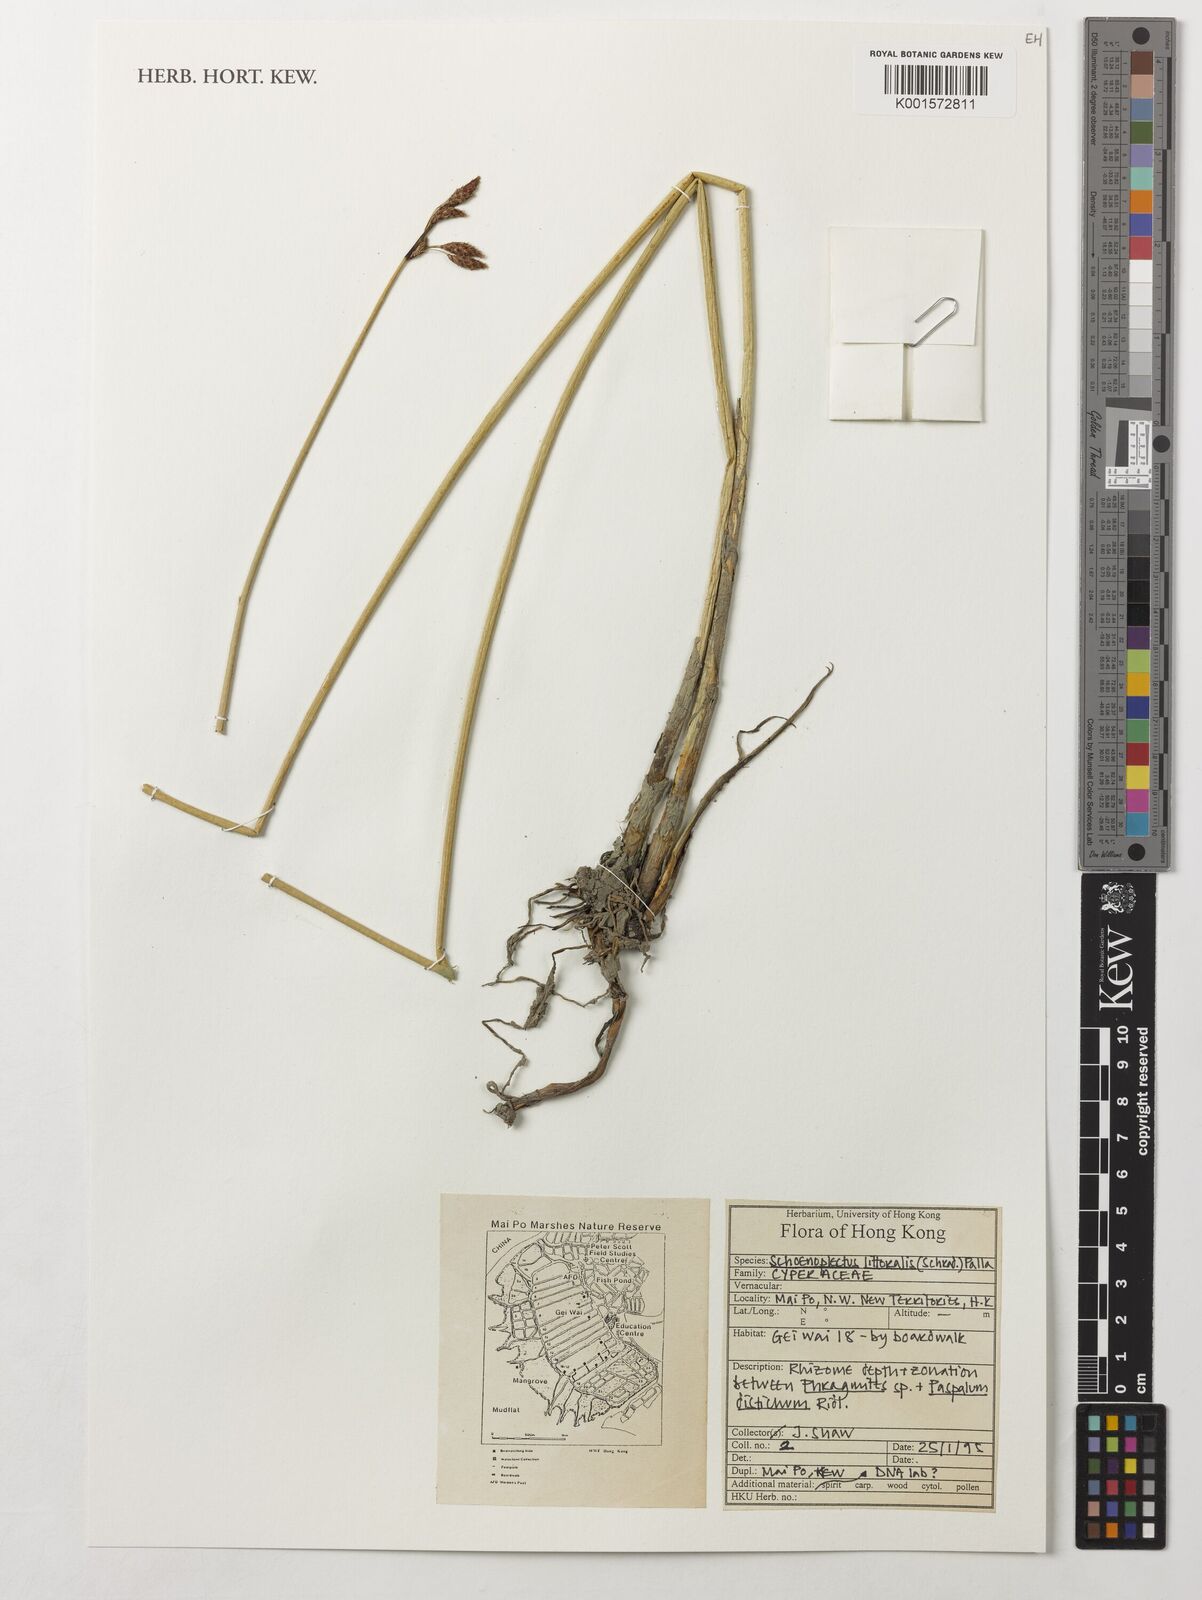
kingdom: Plantae
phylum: Tracheophyta
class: Liliopsida
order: Poales
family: Cyperaceae
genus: Schoenoplectus
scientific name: Schoenoplectus litoralis
